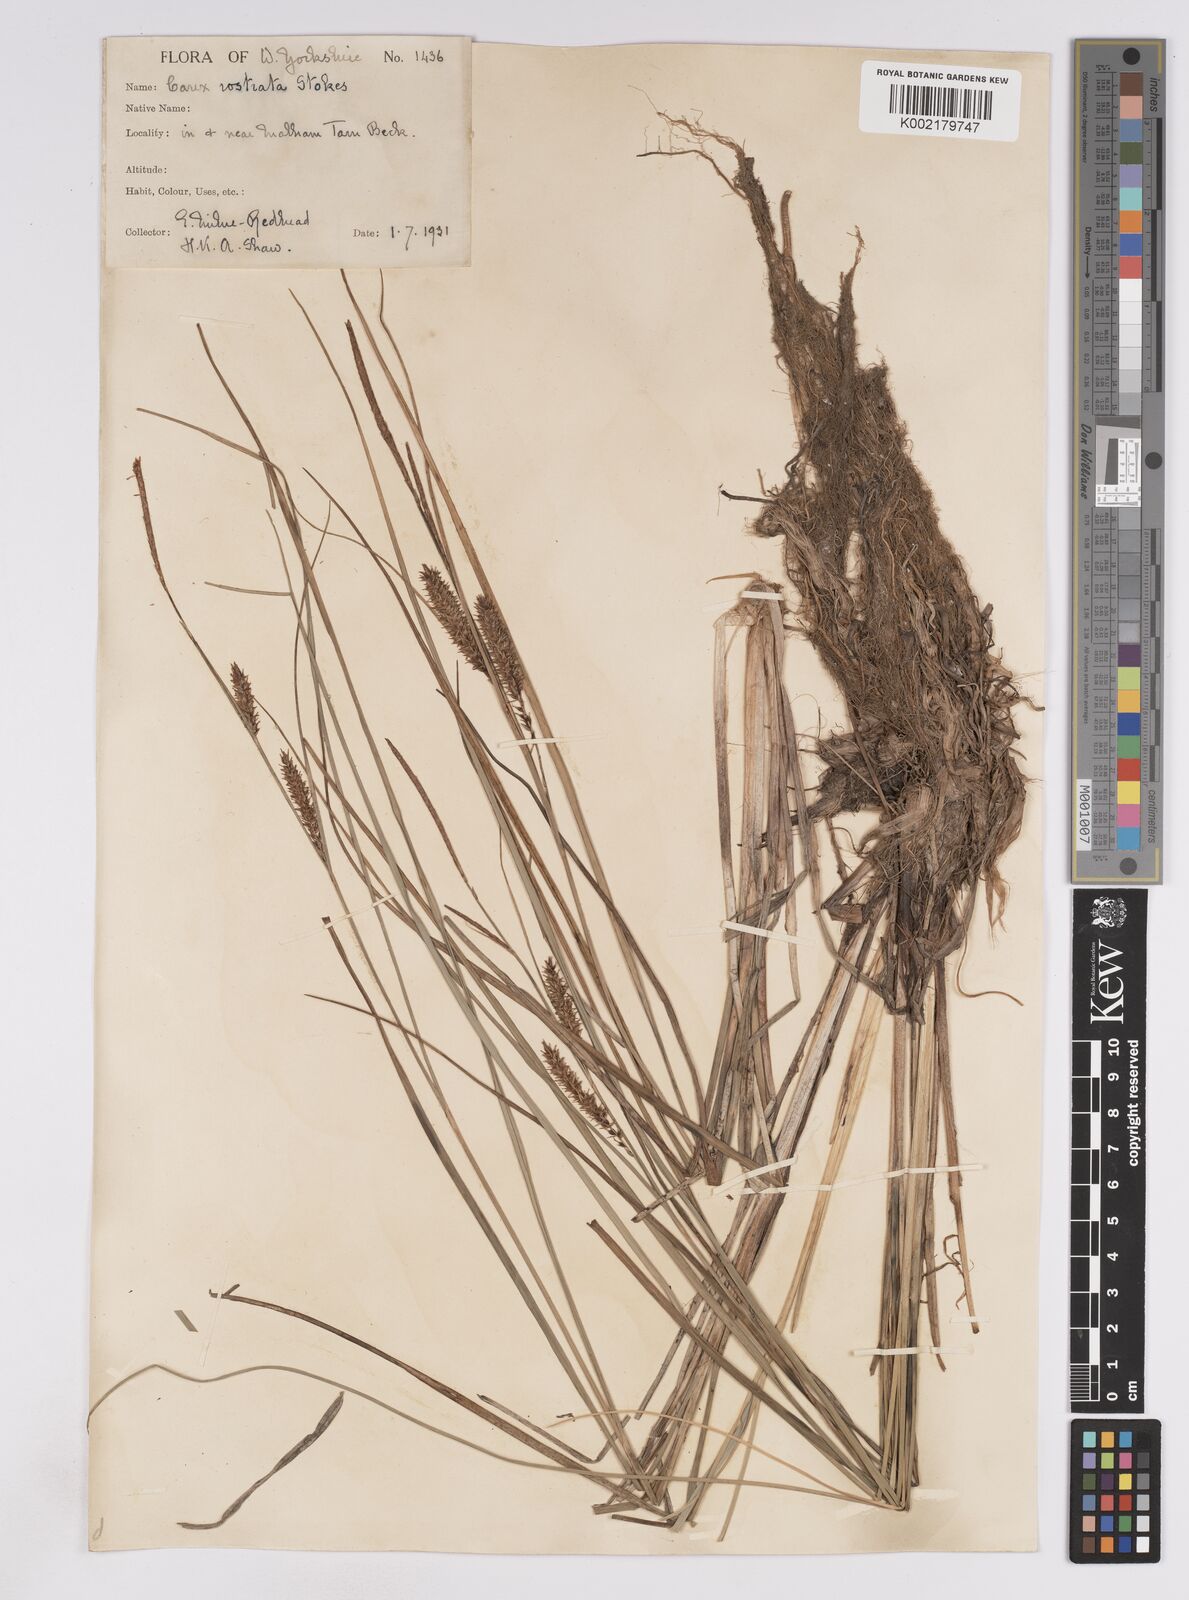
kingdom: Plantae
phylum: Tracheophyta
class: Liliopsida
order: Poales
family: Cyperaceae
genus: Carex
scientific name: Carex rostrata
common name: Bottle sedge
